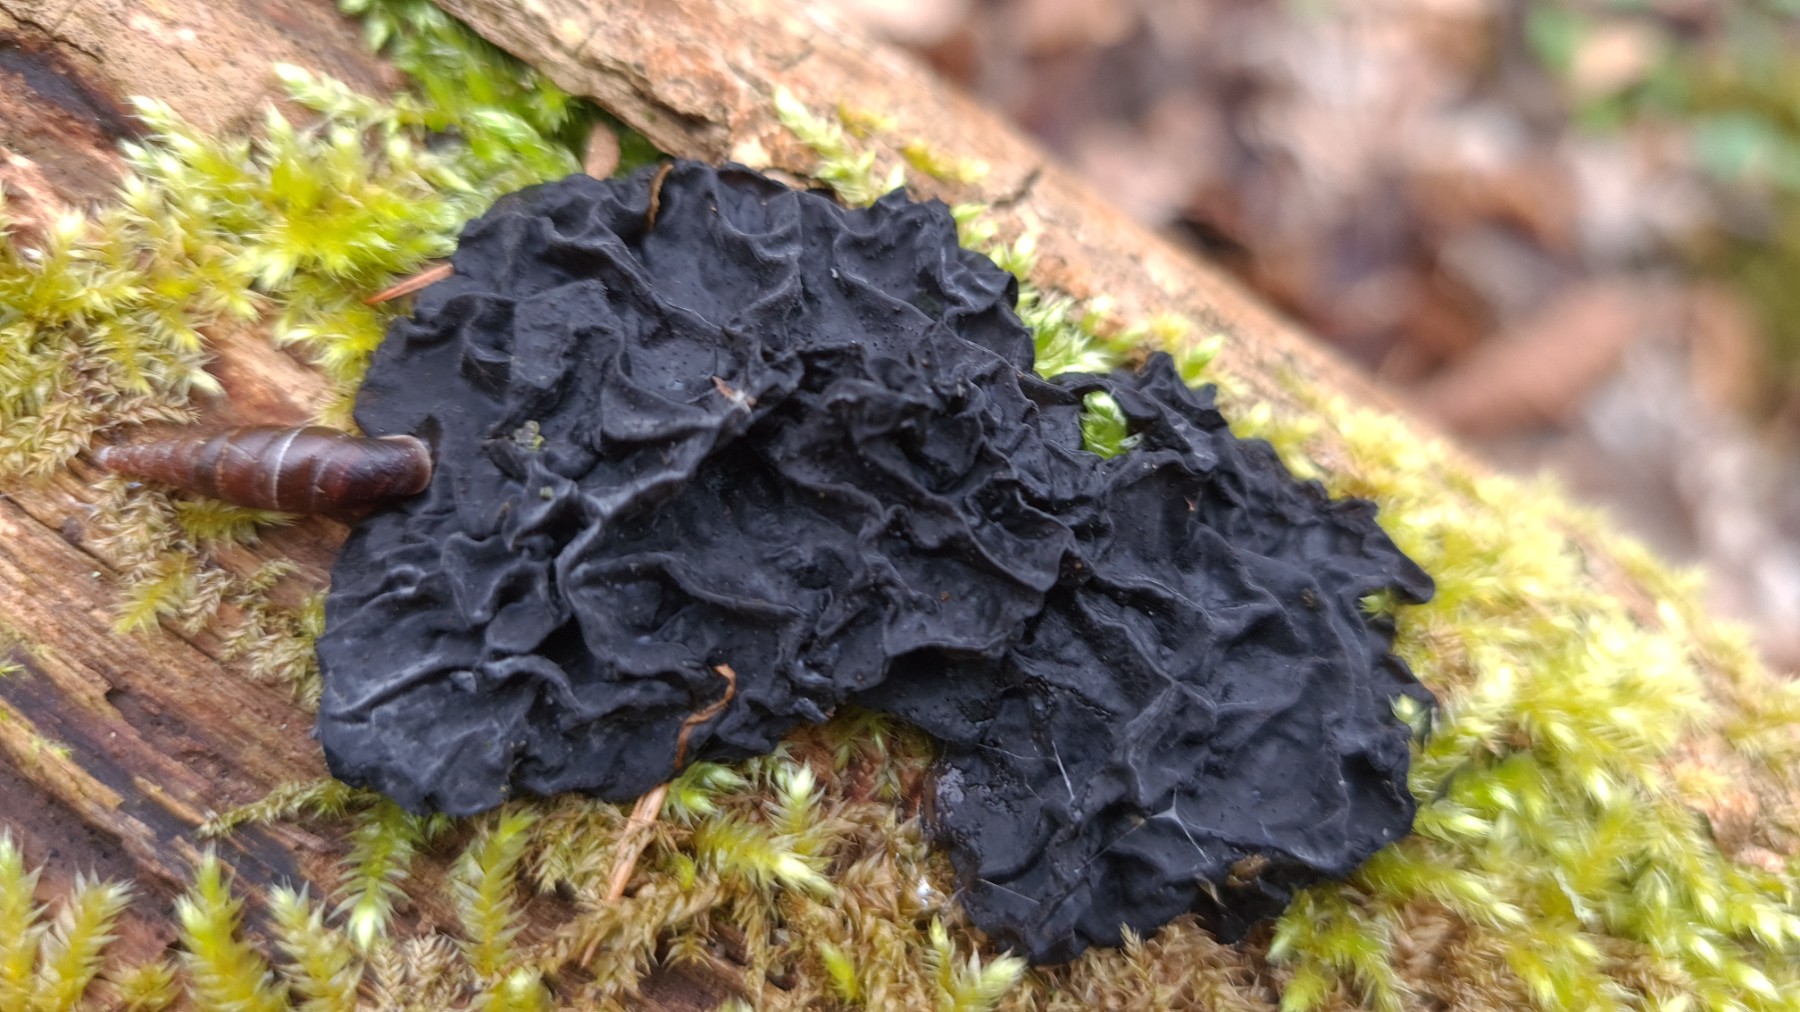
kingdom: Fungi
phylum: Basidiomycota
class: Agaricomycetes
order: Auriculariales
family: Auriculariaceae
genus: Exidia
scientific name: Exidia nigricans
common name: almindelig bævretop
